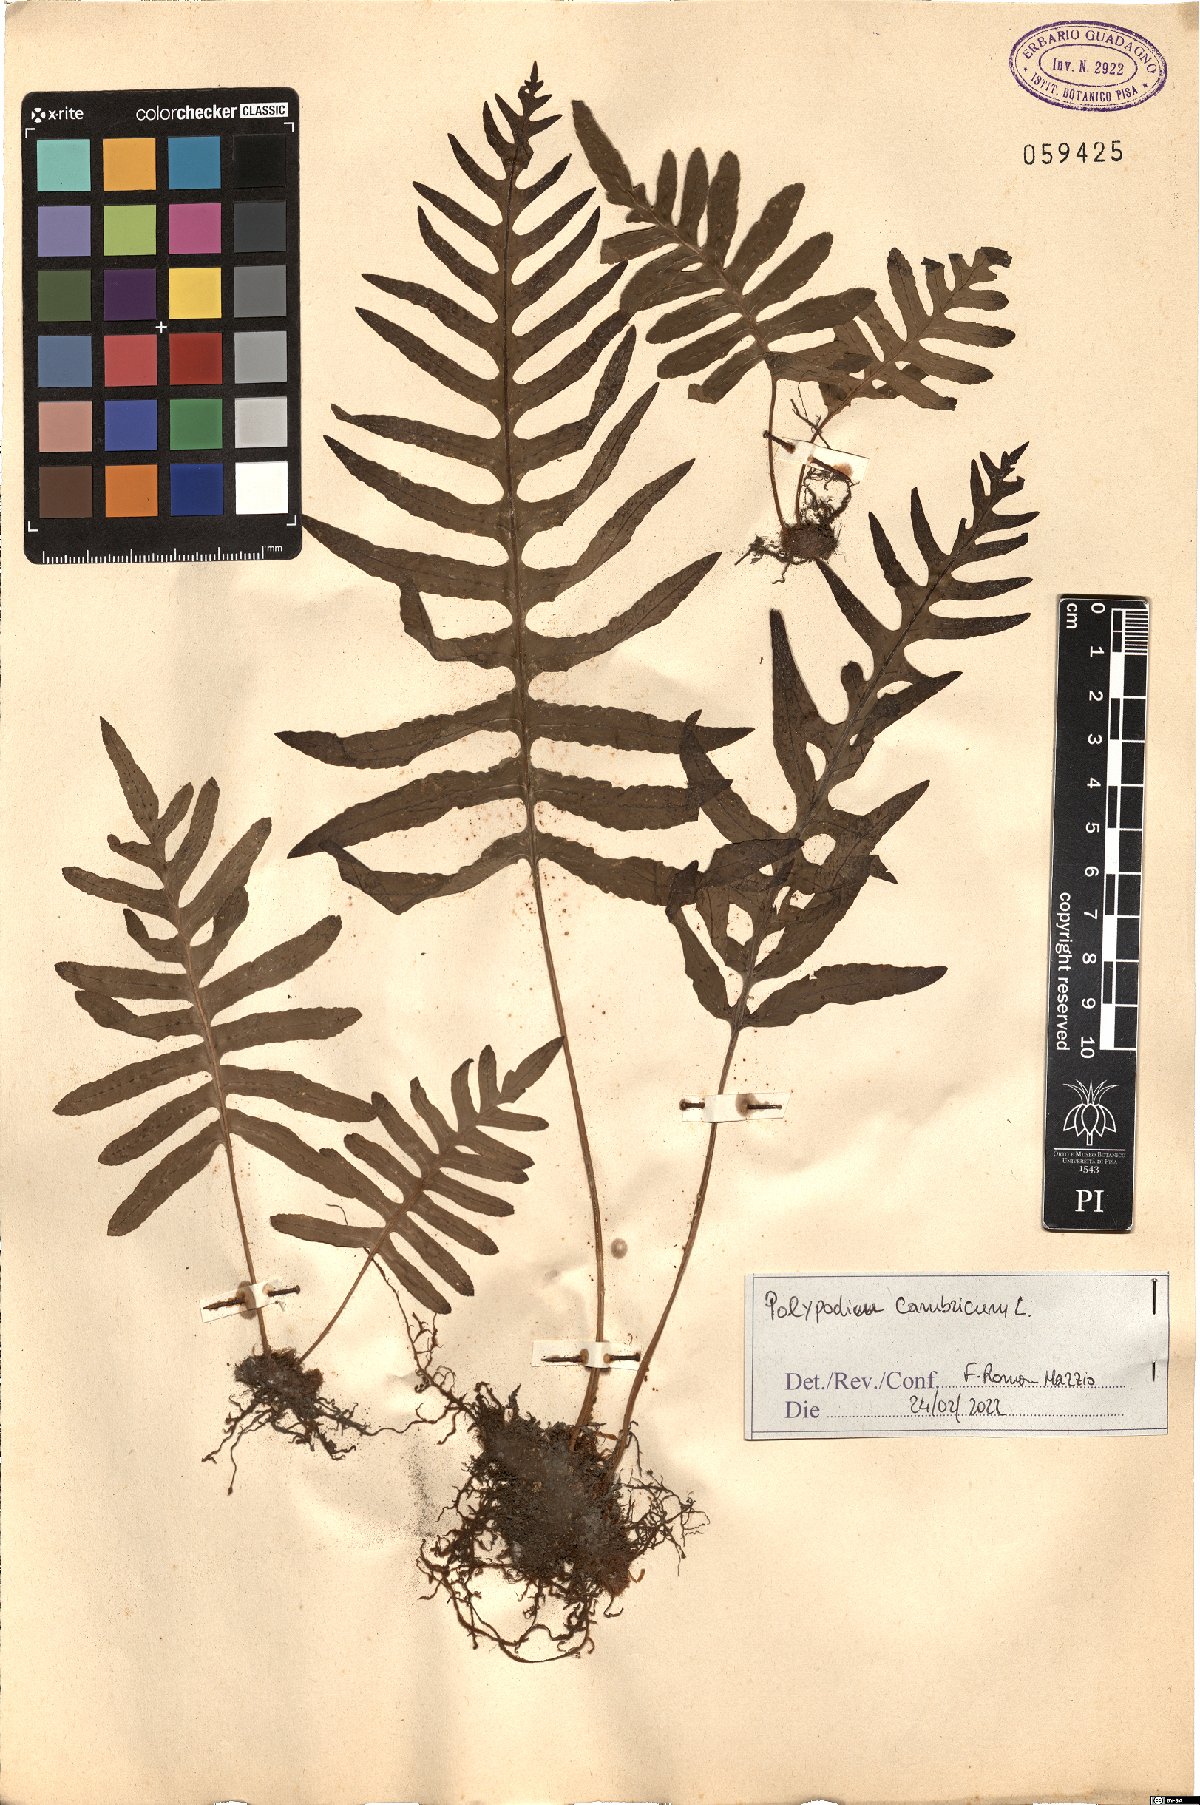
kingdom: Plantae
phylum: Tracheophyta
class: Polypodiopsida
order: Polypodiales
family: Polypodiaceae
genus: Polypodium
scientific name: Polypodium cambricum
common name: Southern polypody
